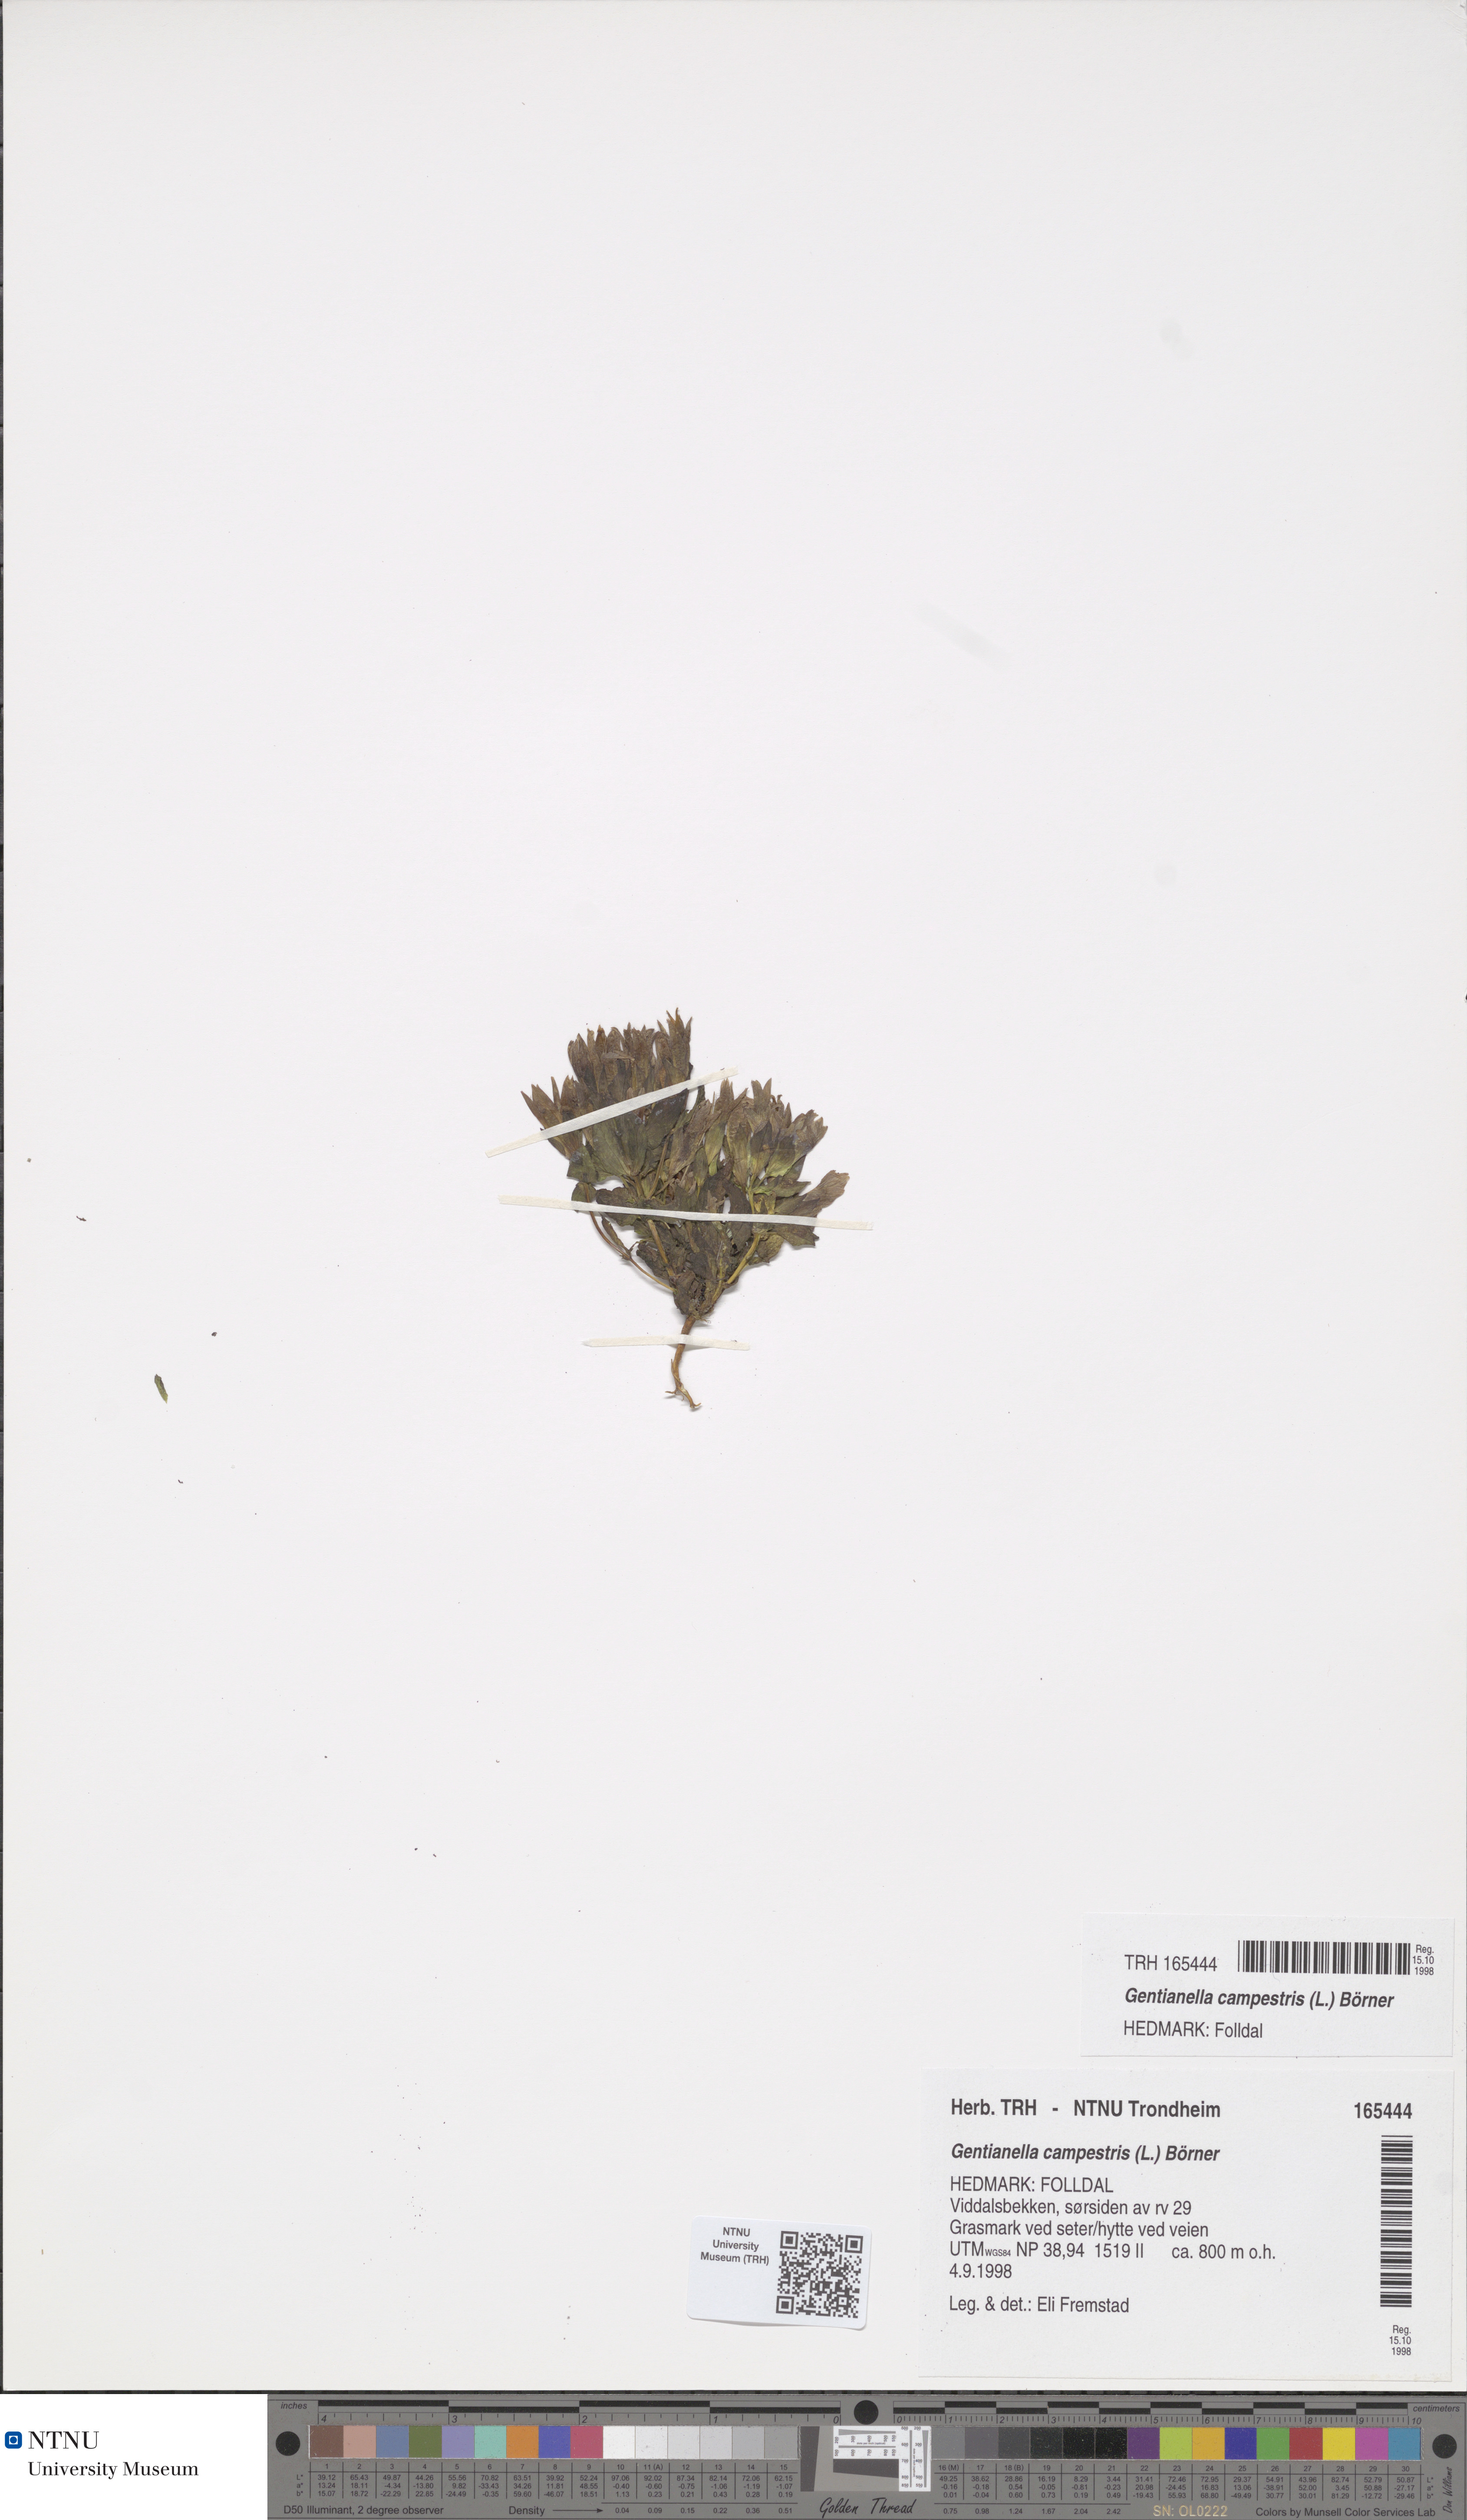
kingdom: Plantae
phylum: Tracheophyta
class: Magnoliopsida
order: Gentianales
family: Gentianaceae
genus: Gentianella
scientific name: Gentianella campestris
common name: Field gentian
